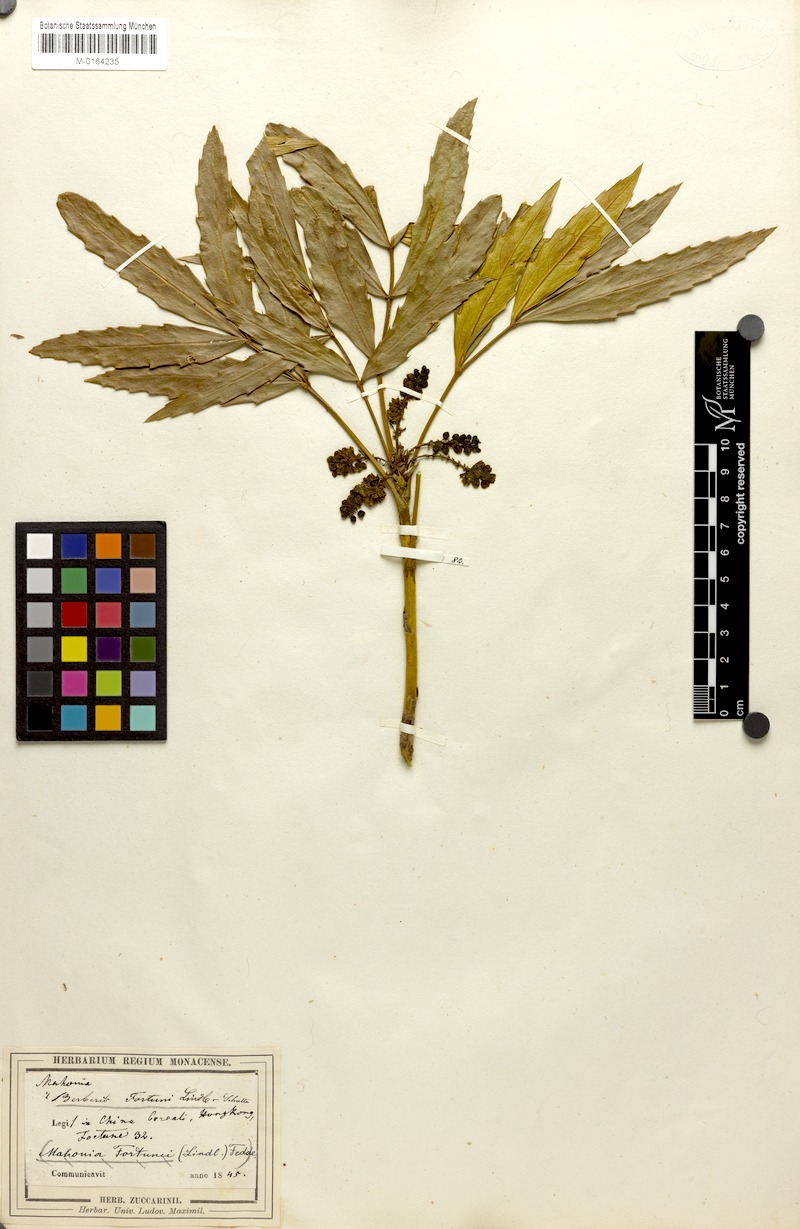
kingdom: Plantae
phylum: Tracheophyta
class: Magnoliopsida
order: Ranunculales
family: Berberidaceae
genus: Mahonia
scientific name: Mahonia fortunei
